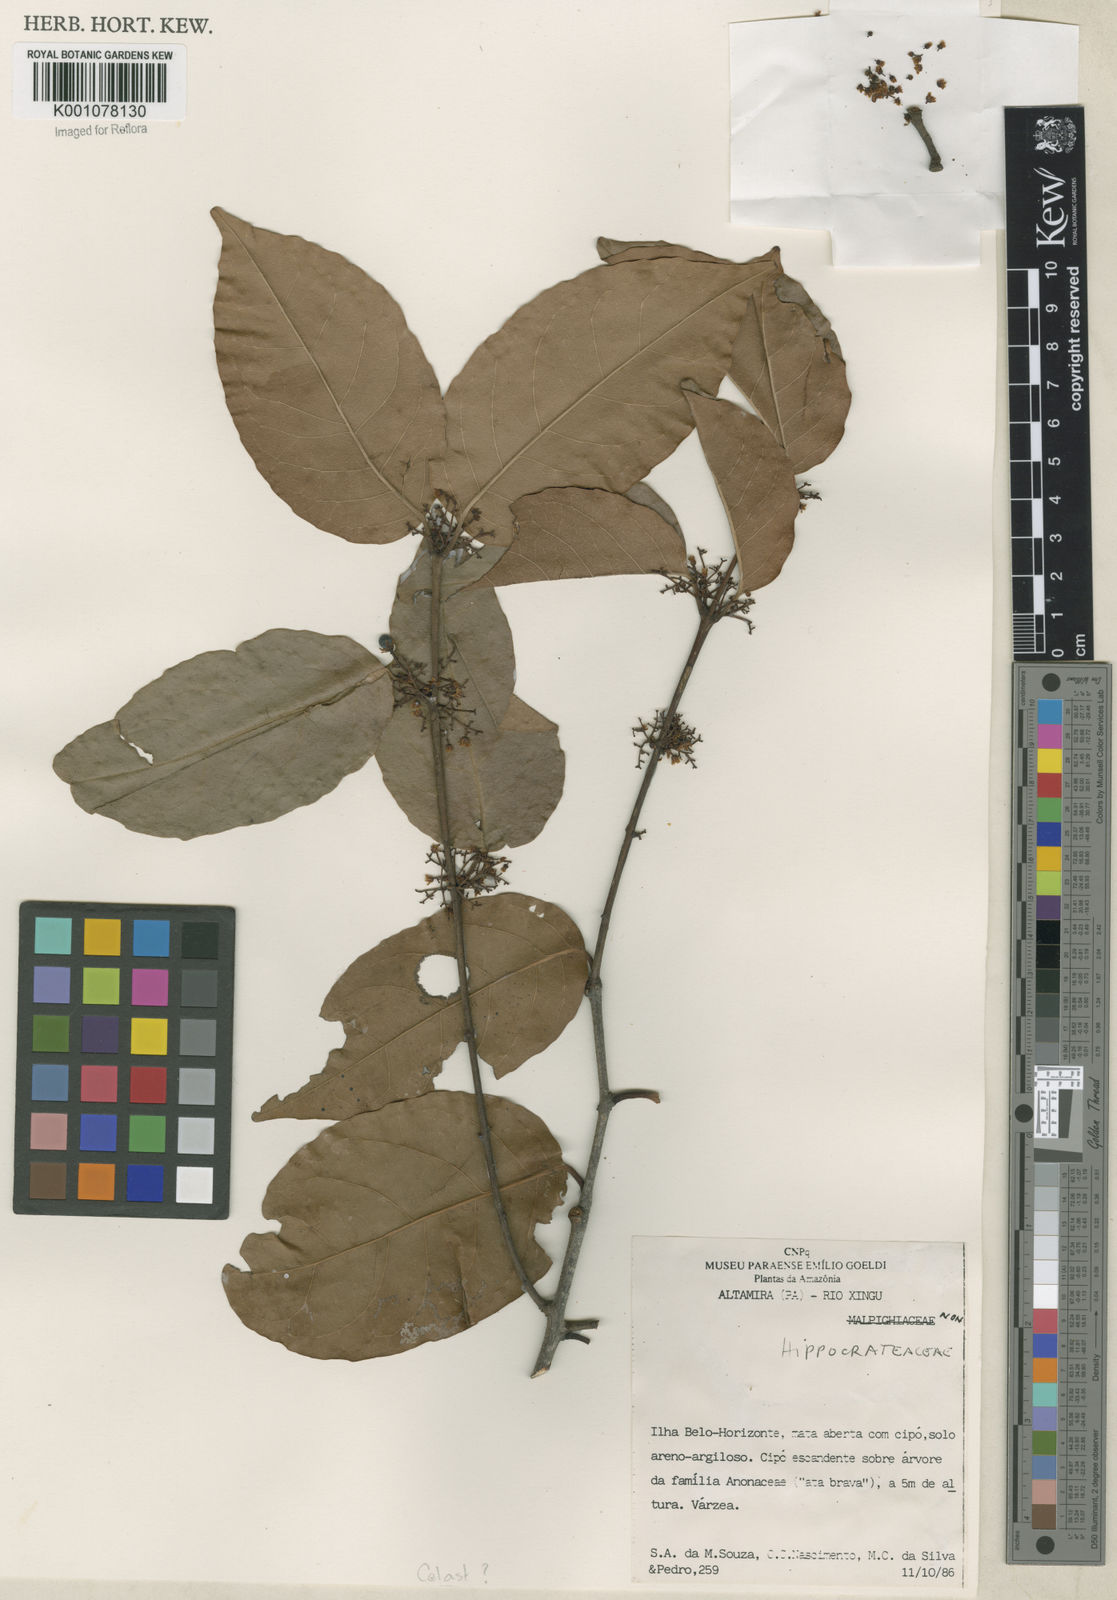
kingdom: Plantae
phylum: Tracheophyta
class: Magnoliopsida
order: Celastrales
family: Celastraceae
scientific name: Celastraceae
